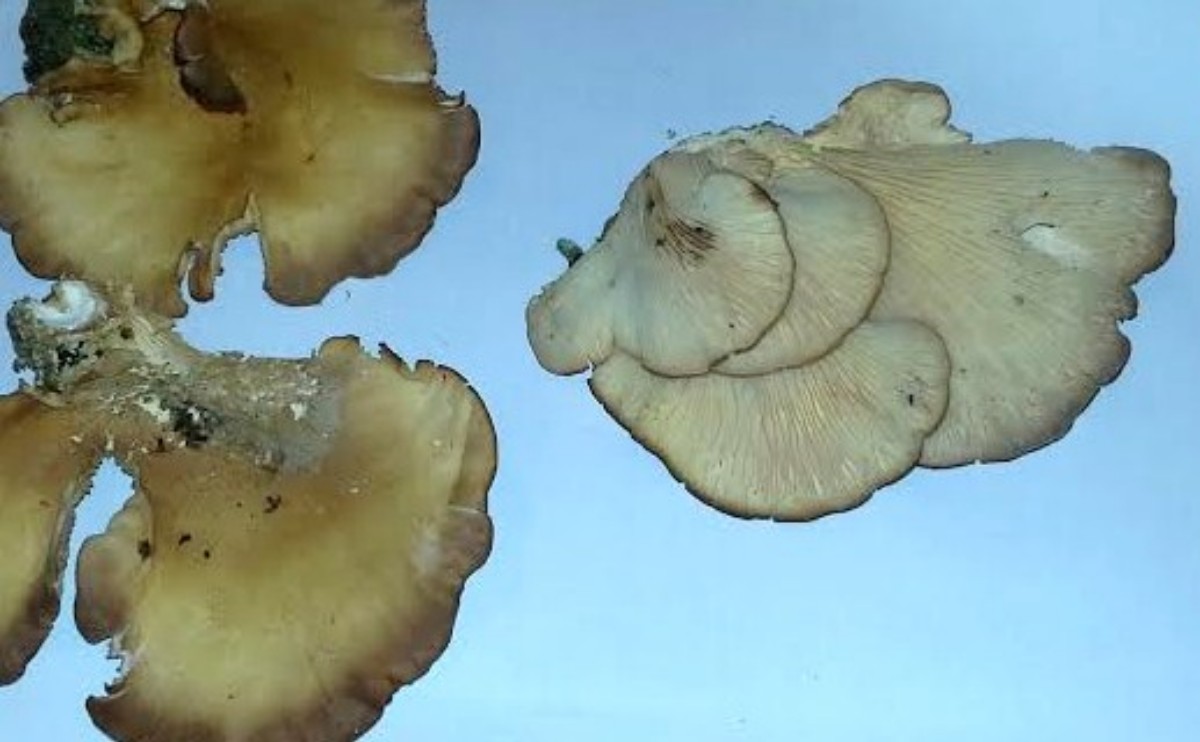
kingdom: Fungi
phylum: Basidiomycota
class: Agaricomycetes
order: Polyporales
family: Panaceae
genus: Panus
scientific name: Panus conchatus
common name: filtstokket læderhat
